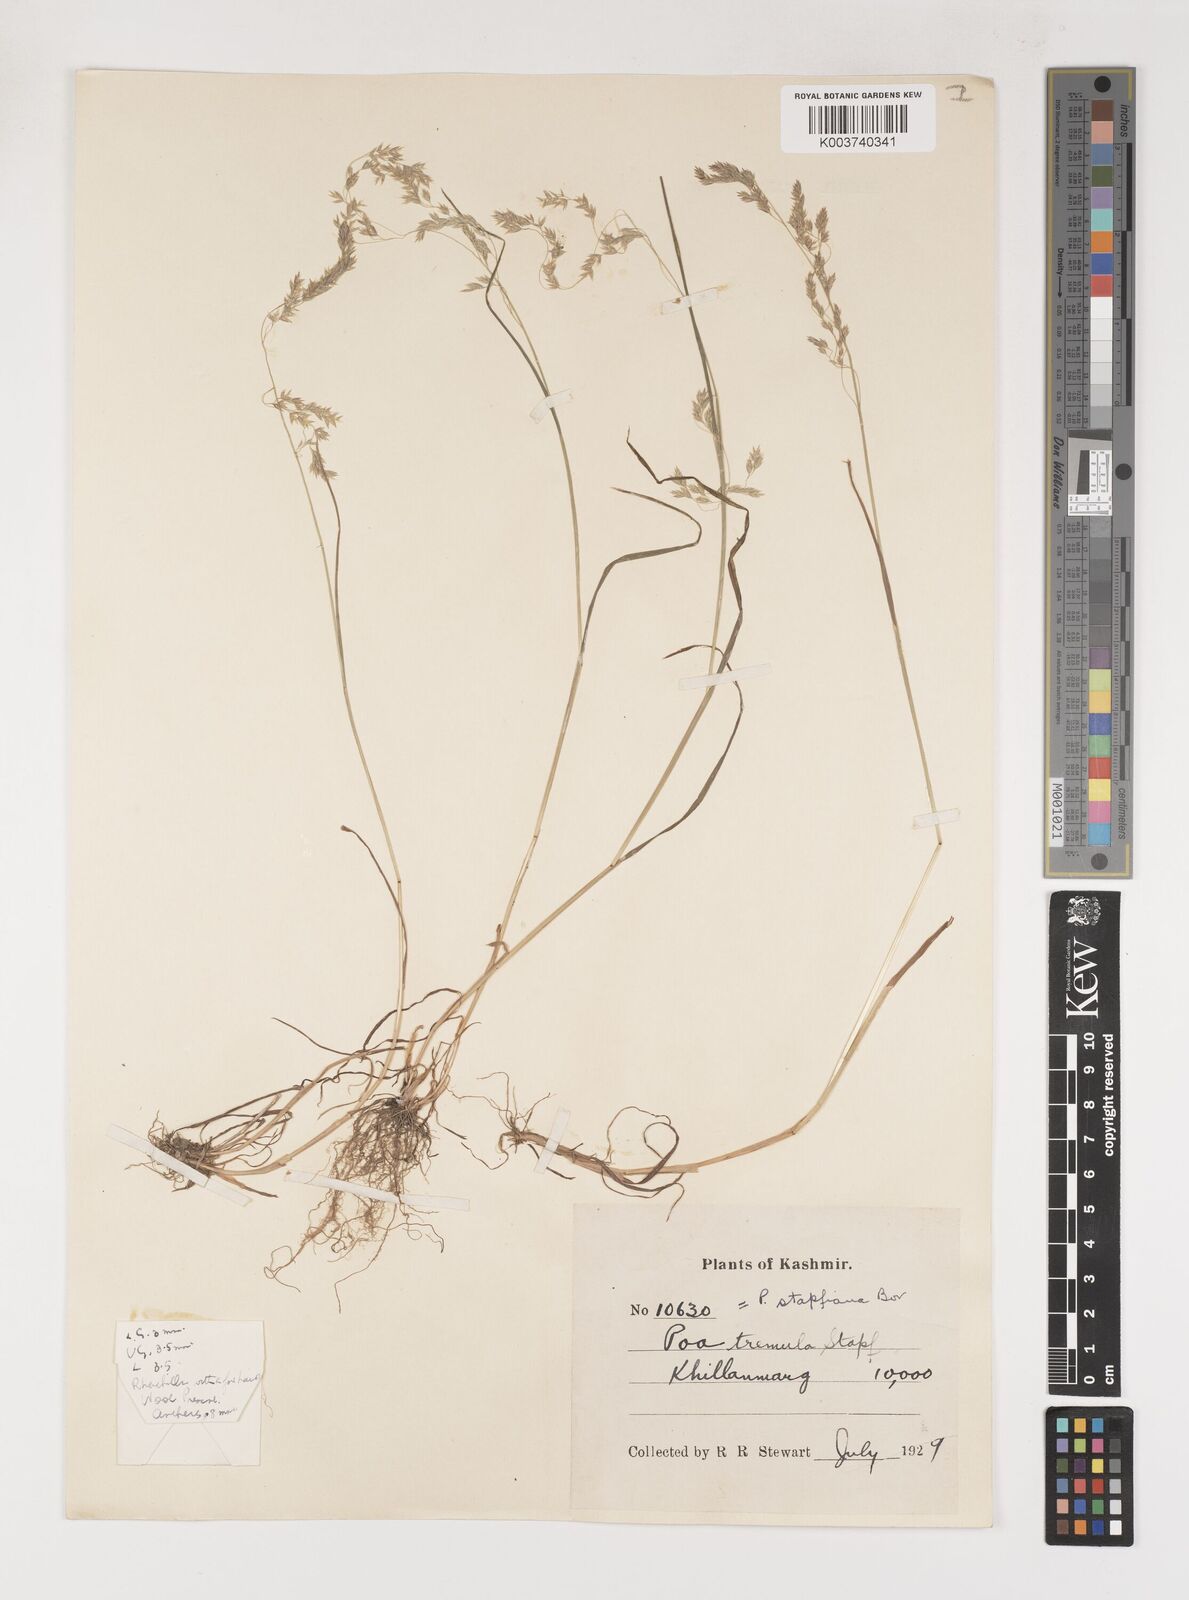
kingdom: Plantae
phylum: Tracheophyta
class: Liliopsida
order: Poales
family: Poaceae
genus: Poa
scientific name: Poa stapfiana
